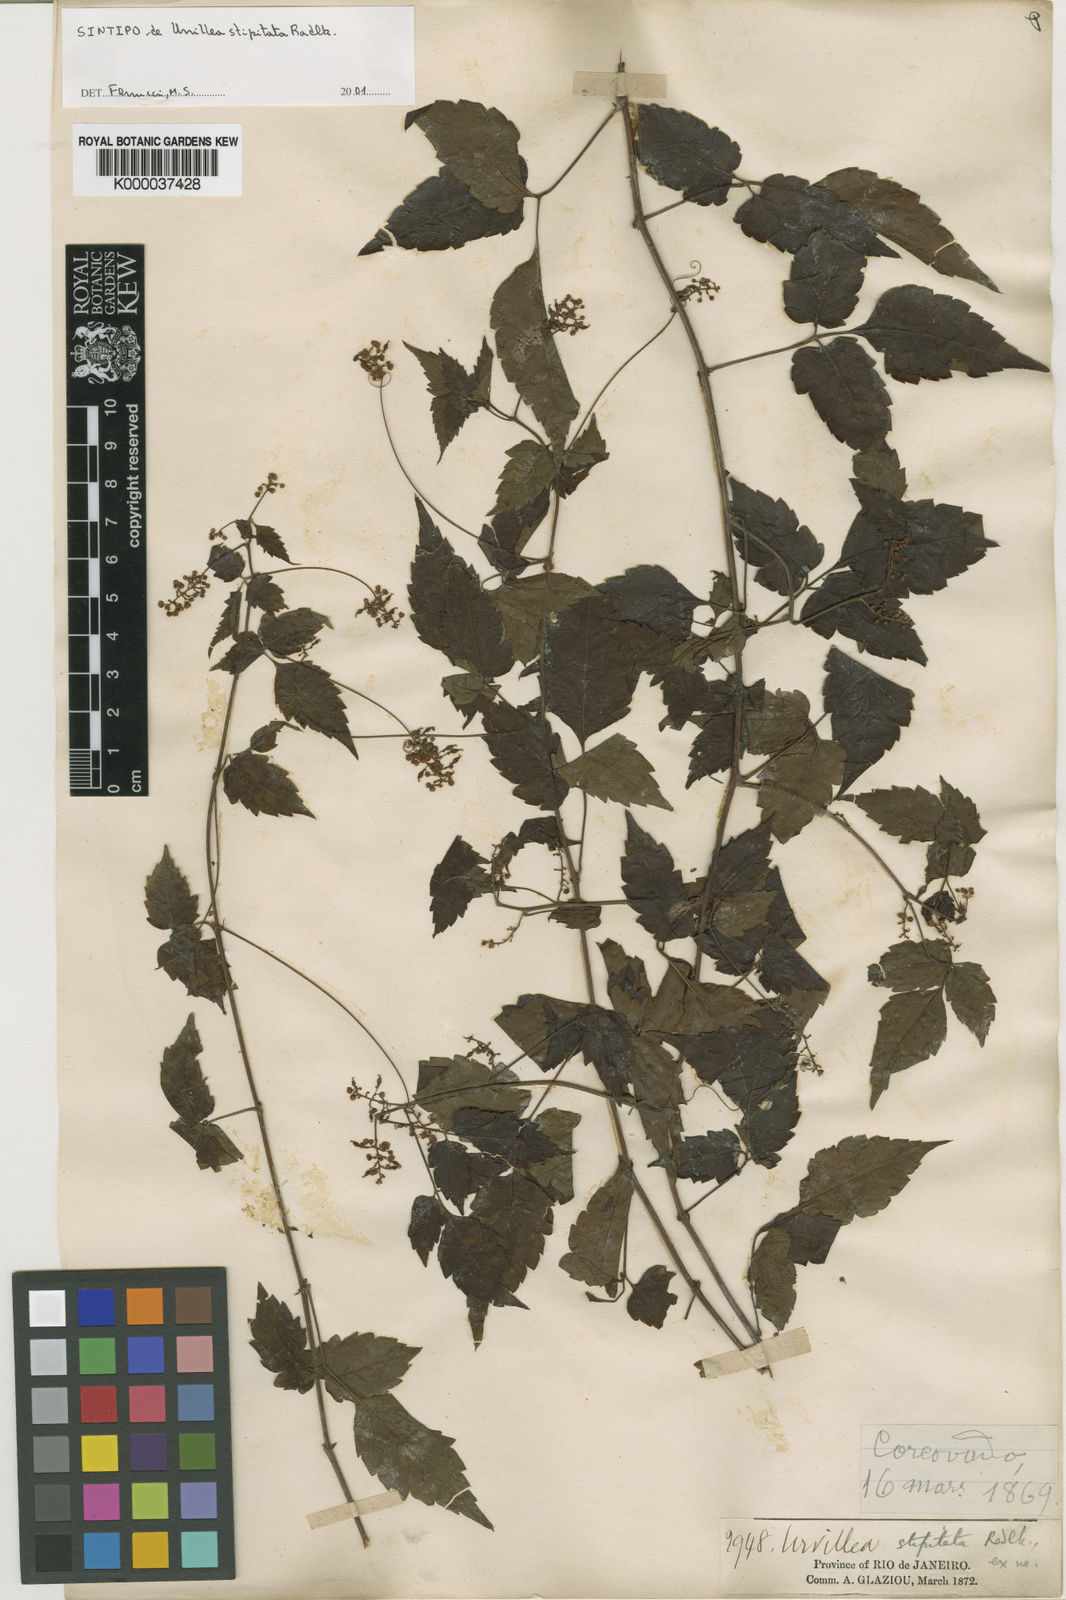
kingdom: Plantae
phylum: Tracheophyta
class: Magnoliopsida
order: Sapindales
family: Sapindaceae
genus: Urvillea
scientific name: Urvillea stipitata
